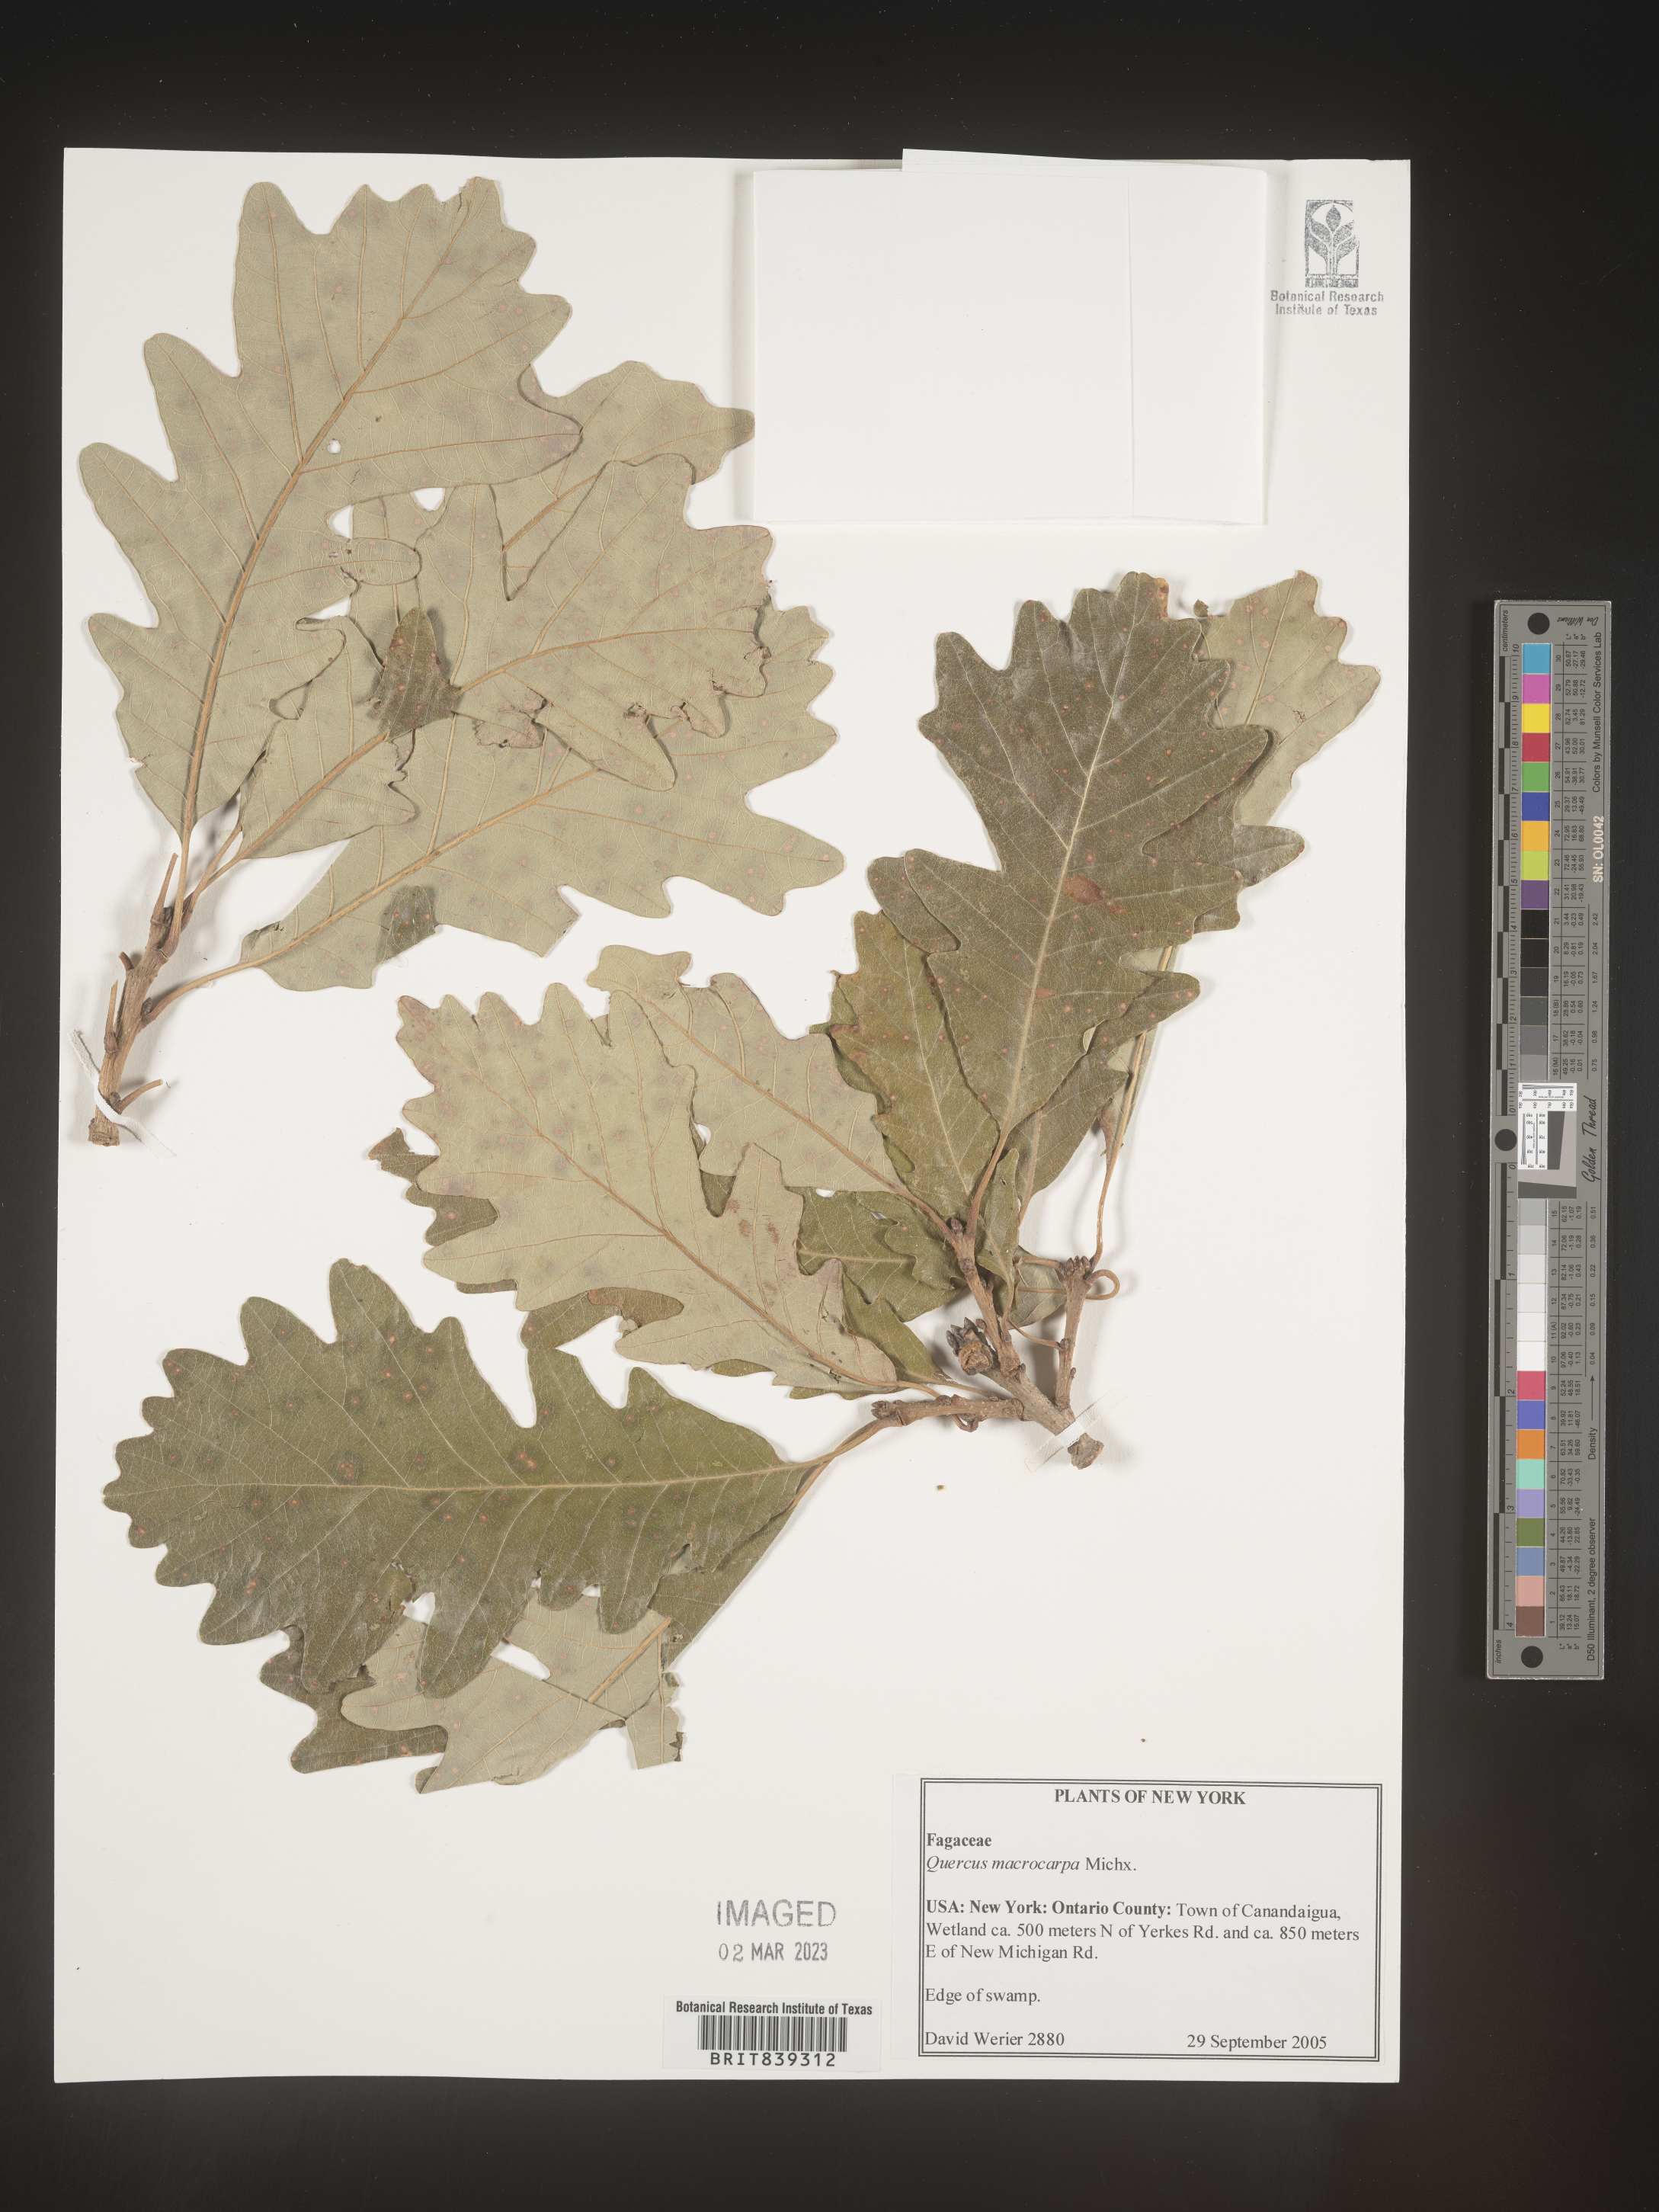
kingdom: Plantae
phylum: Tracheophyta
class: Magnoliopsida
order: Fagales
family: Fagaceae
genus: Quercus
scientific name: Quercus macrocarpa
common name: Bur oak
